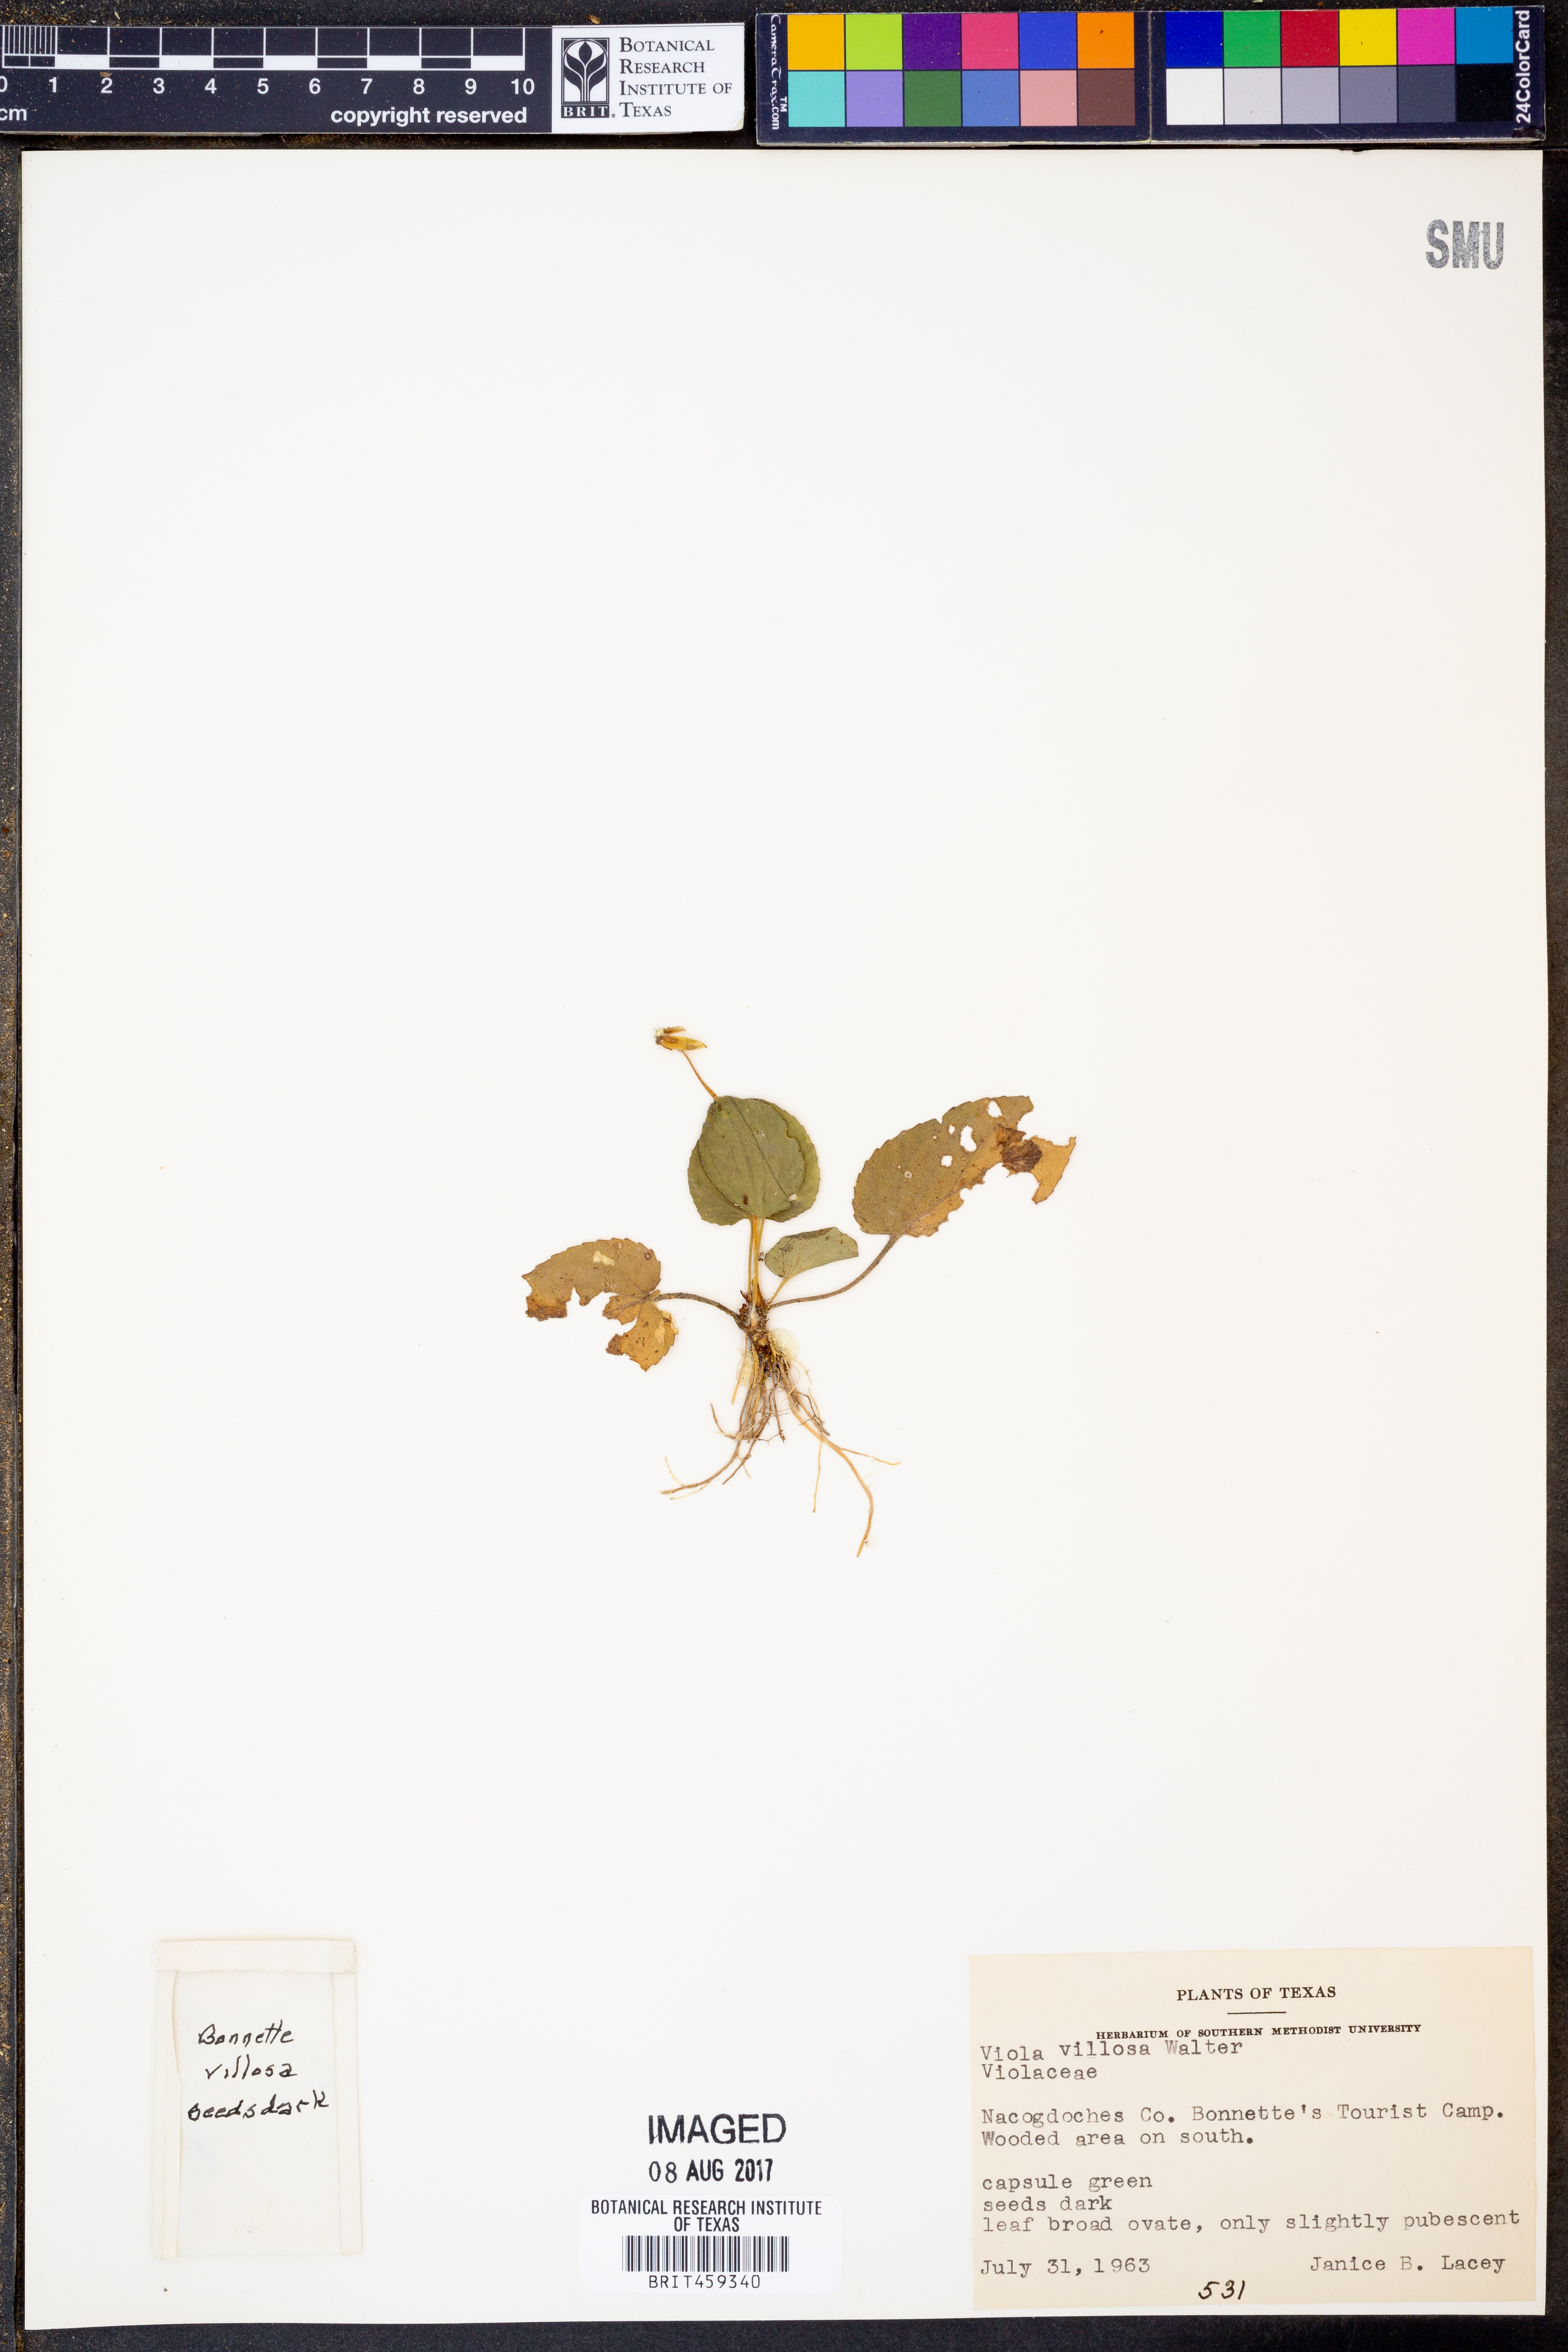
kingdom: Plantae
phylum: Tracheophyta
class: Magnoliopsida
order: Malpighiales
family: Violaceae
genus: Viola
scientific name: Viola villosa
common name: Carolina violet
